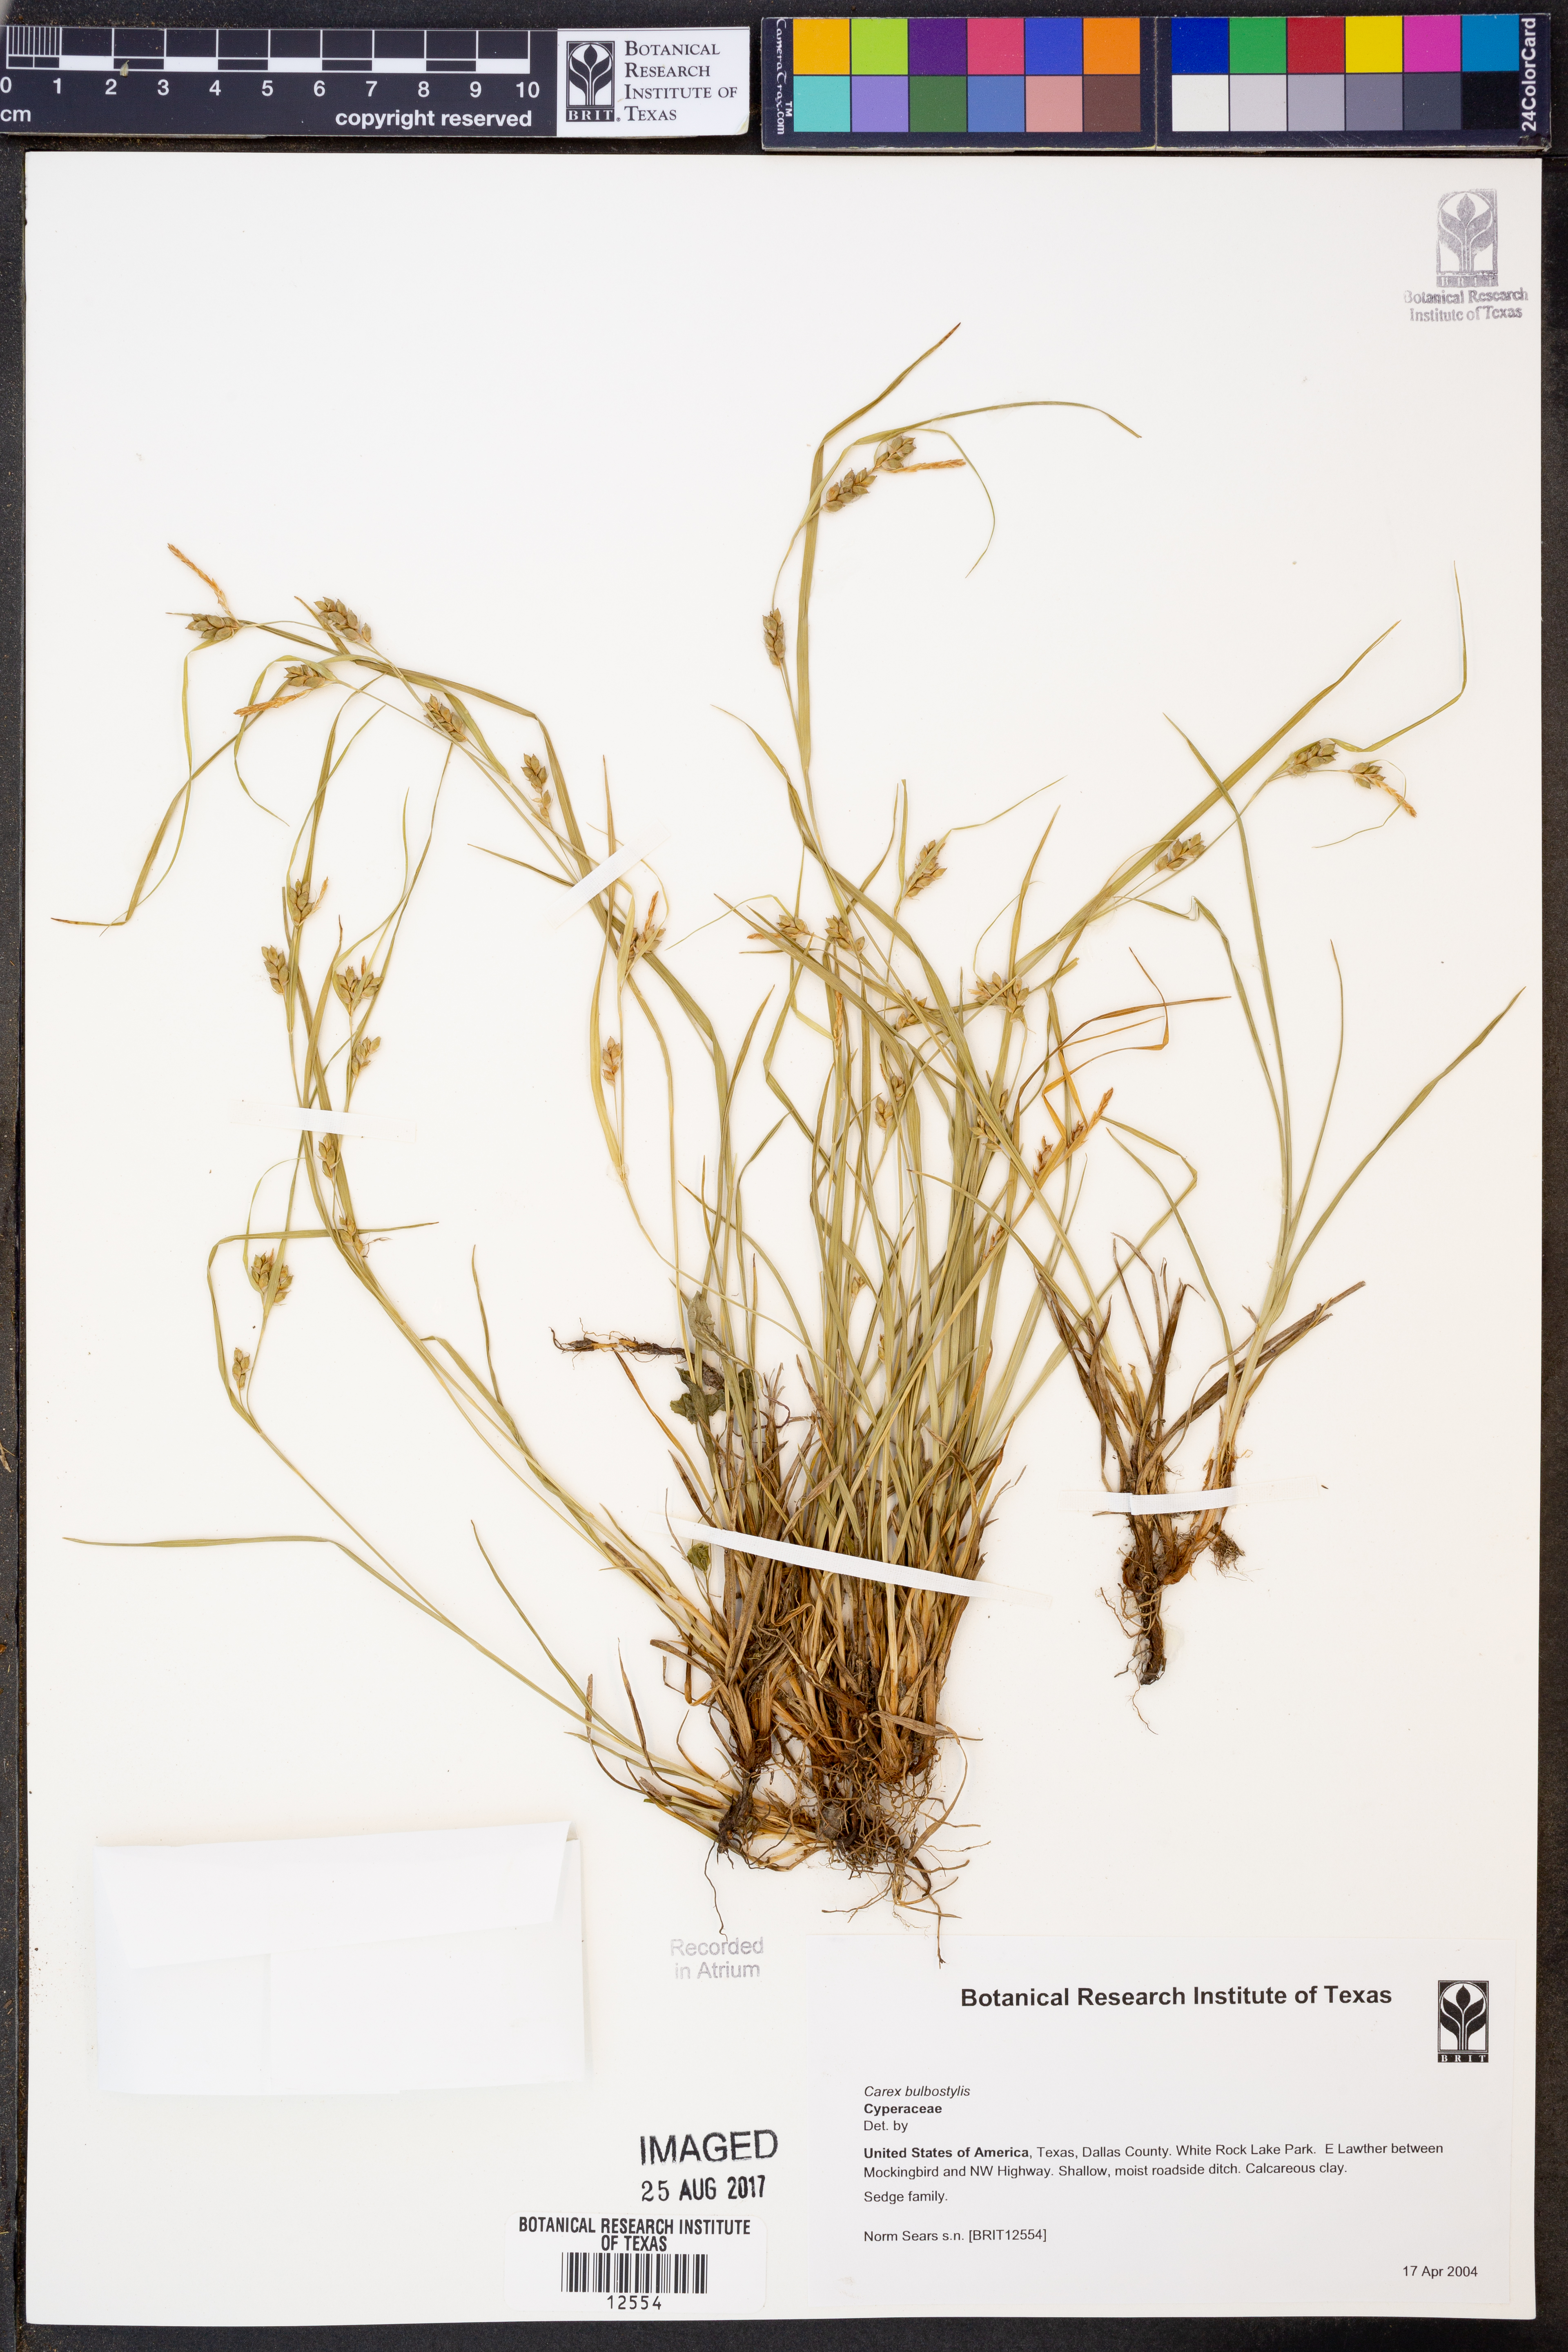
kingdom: Plantae
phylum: Tracheophyta
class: Liliopsida
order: Poales
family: Cyperaceae
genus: Carex
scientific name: Carex bulbostylis
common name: Eastern narrowleaf sedge
